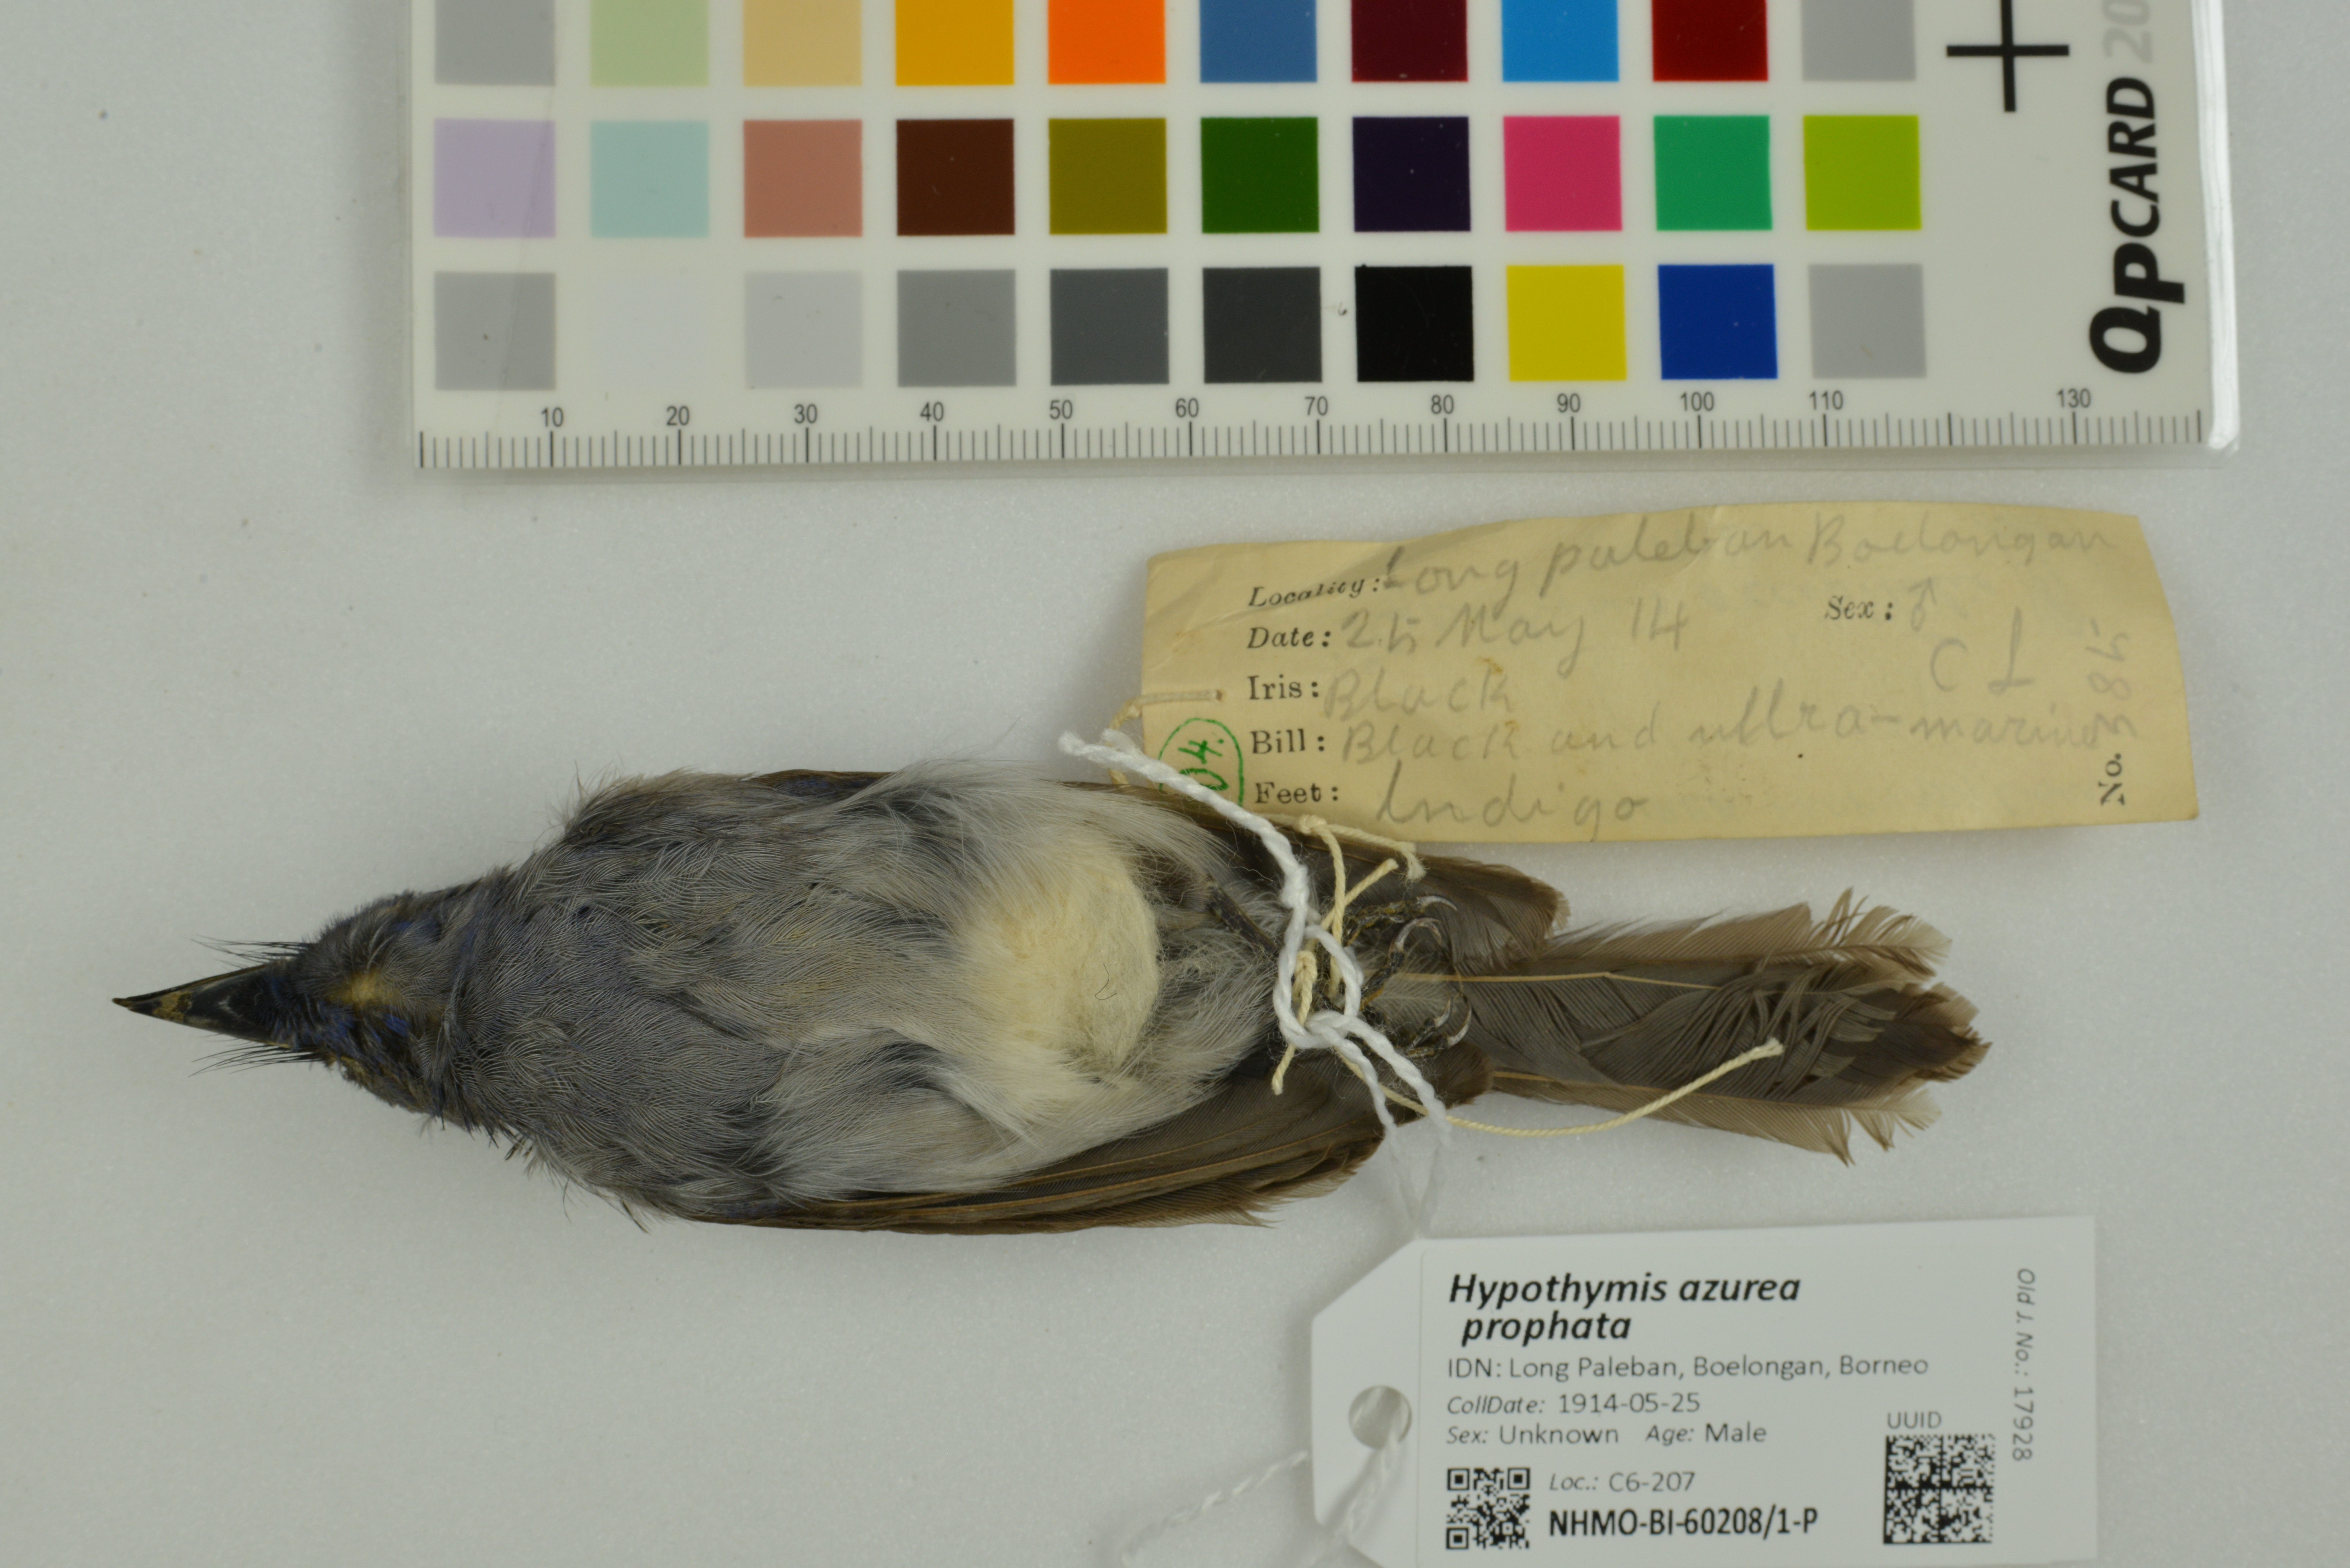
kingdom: Animalia
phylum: Chordata
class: Aves
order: Passeriformes
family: Monarchidae
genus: Hypothymis
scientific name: Hypothymis azurea
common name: Black-naped monarch
